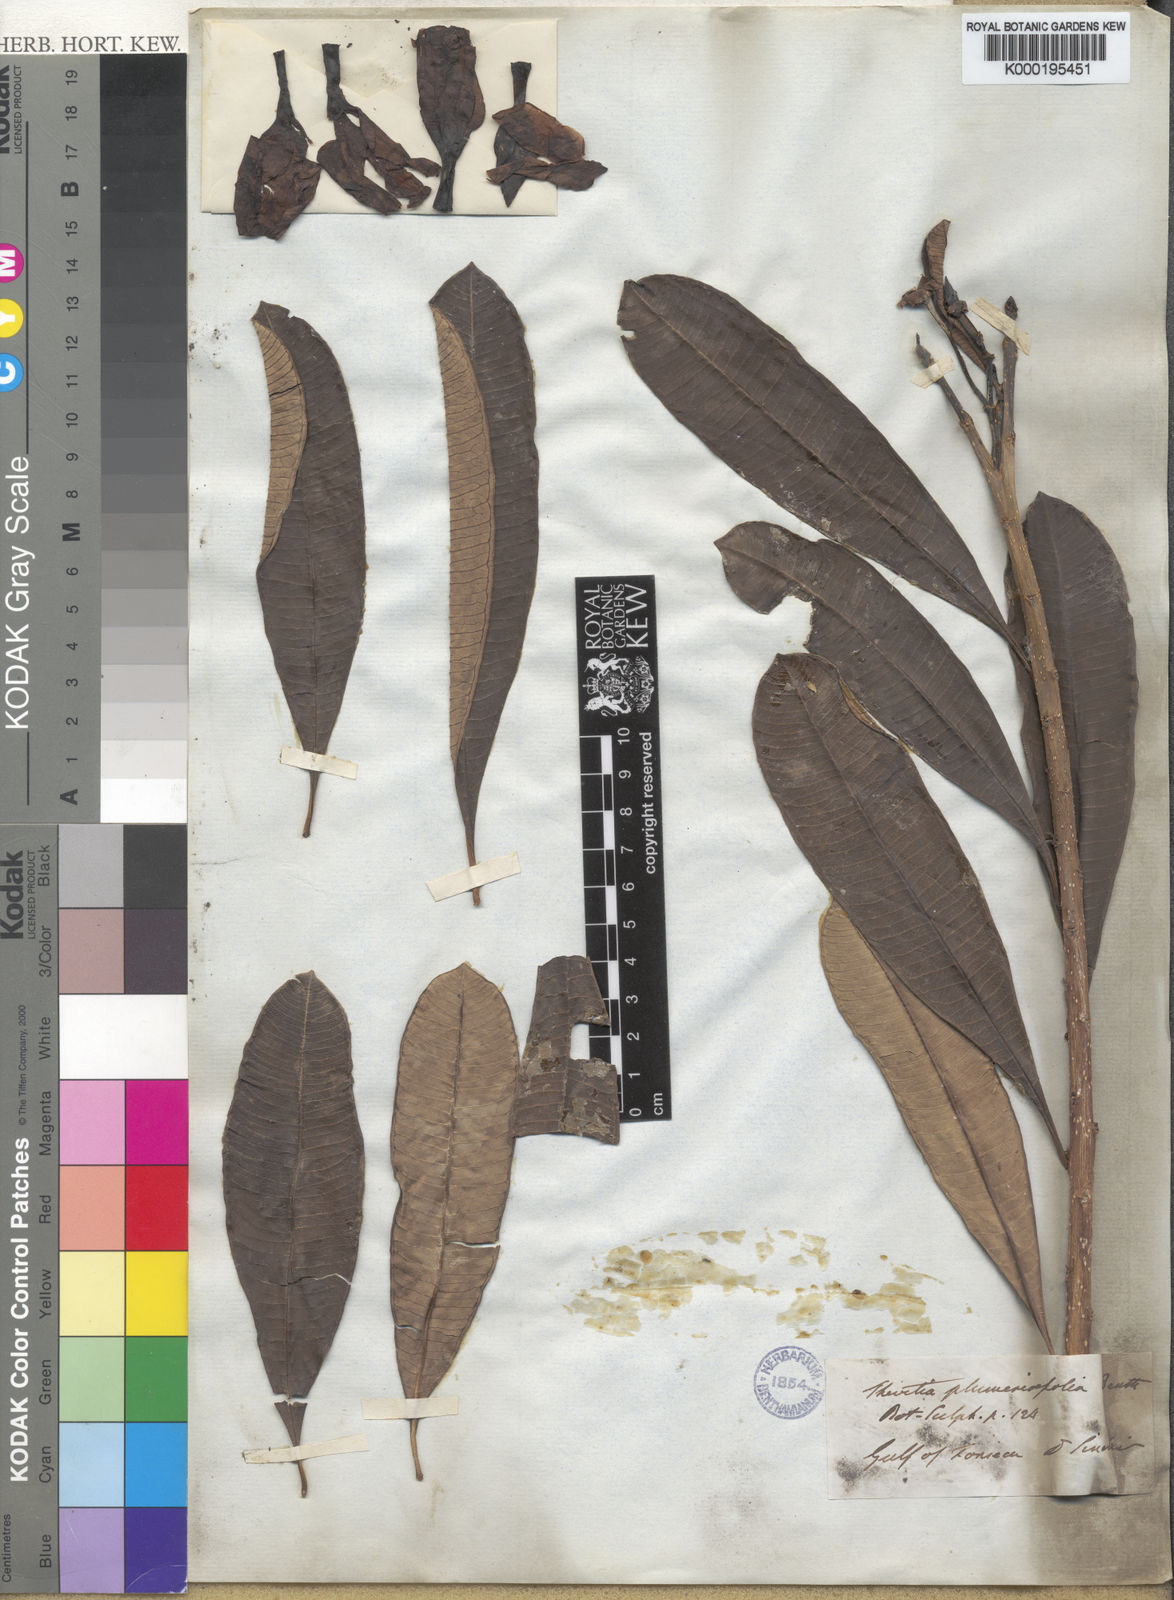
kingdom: Plantae
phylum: Tracheophyta
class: Magnoliopsida
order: Gentianales
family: Apocynaceae
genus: Cascabela
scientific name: Cascabela ovata
